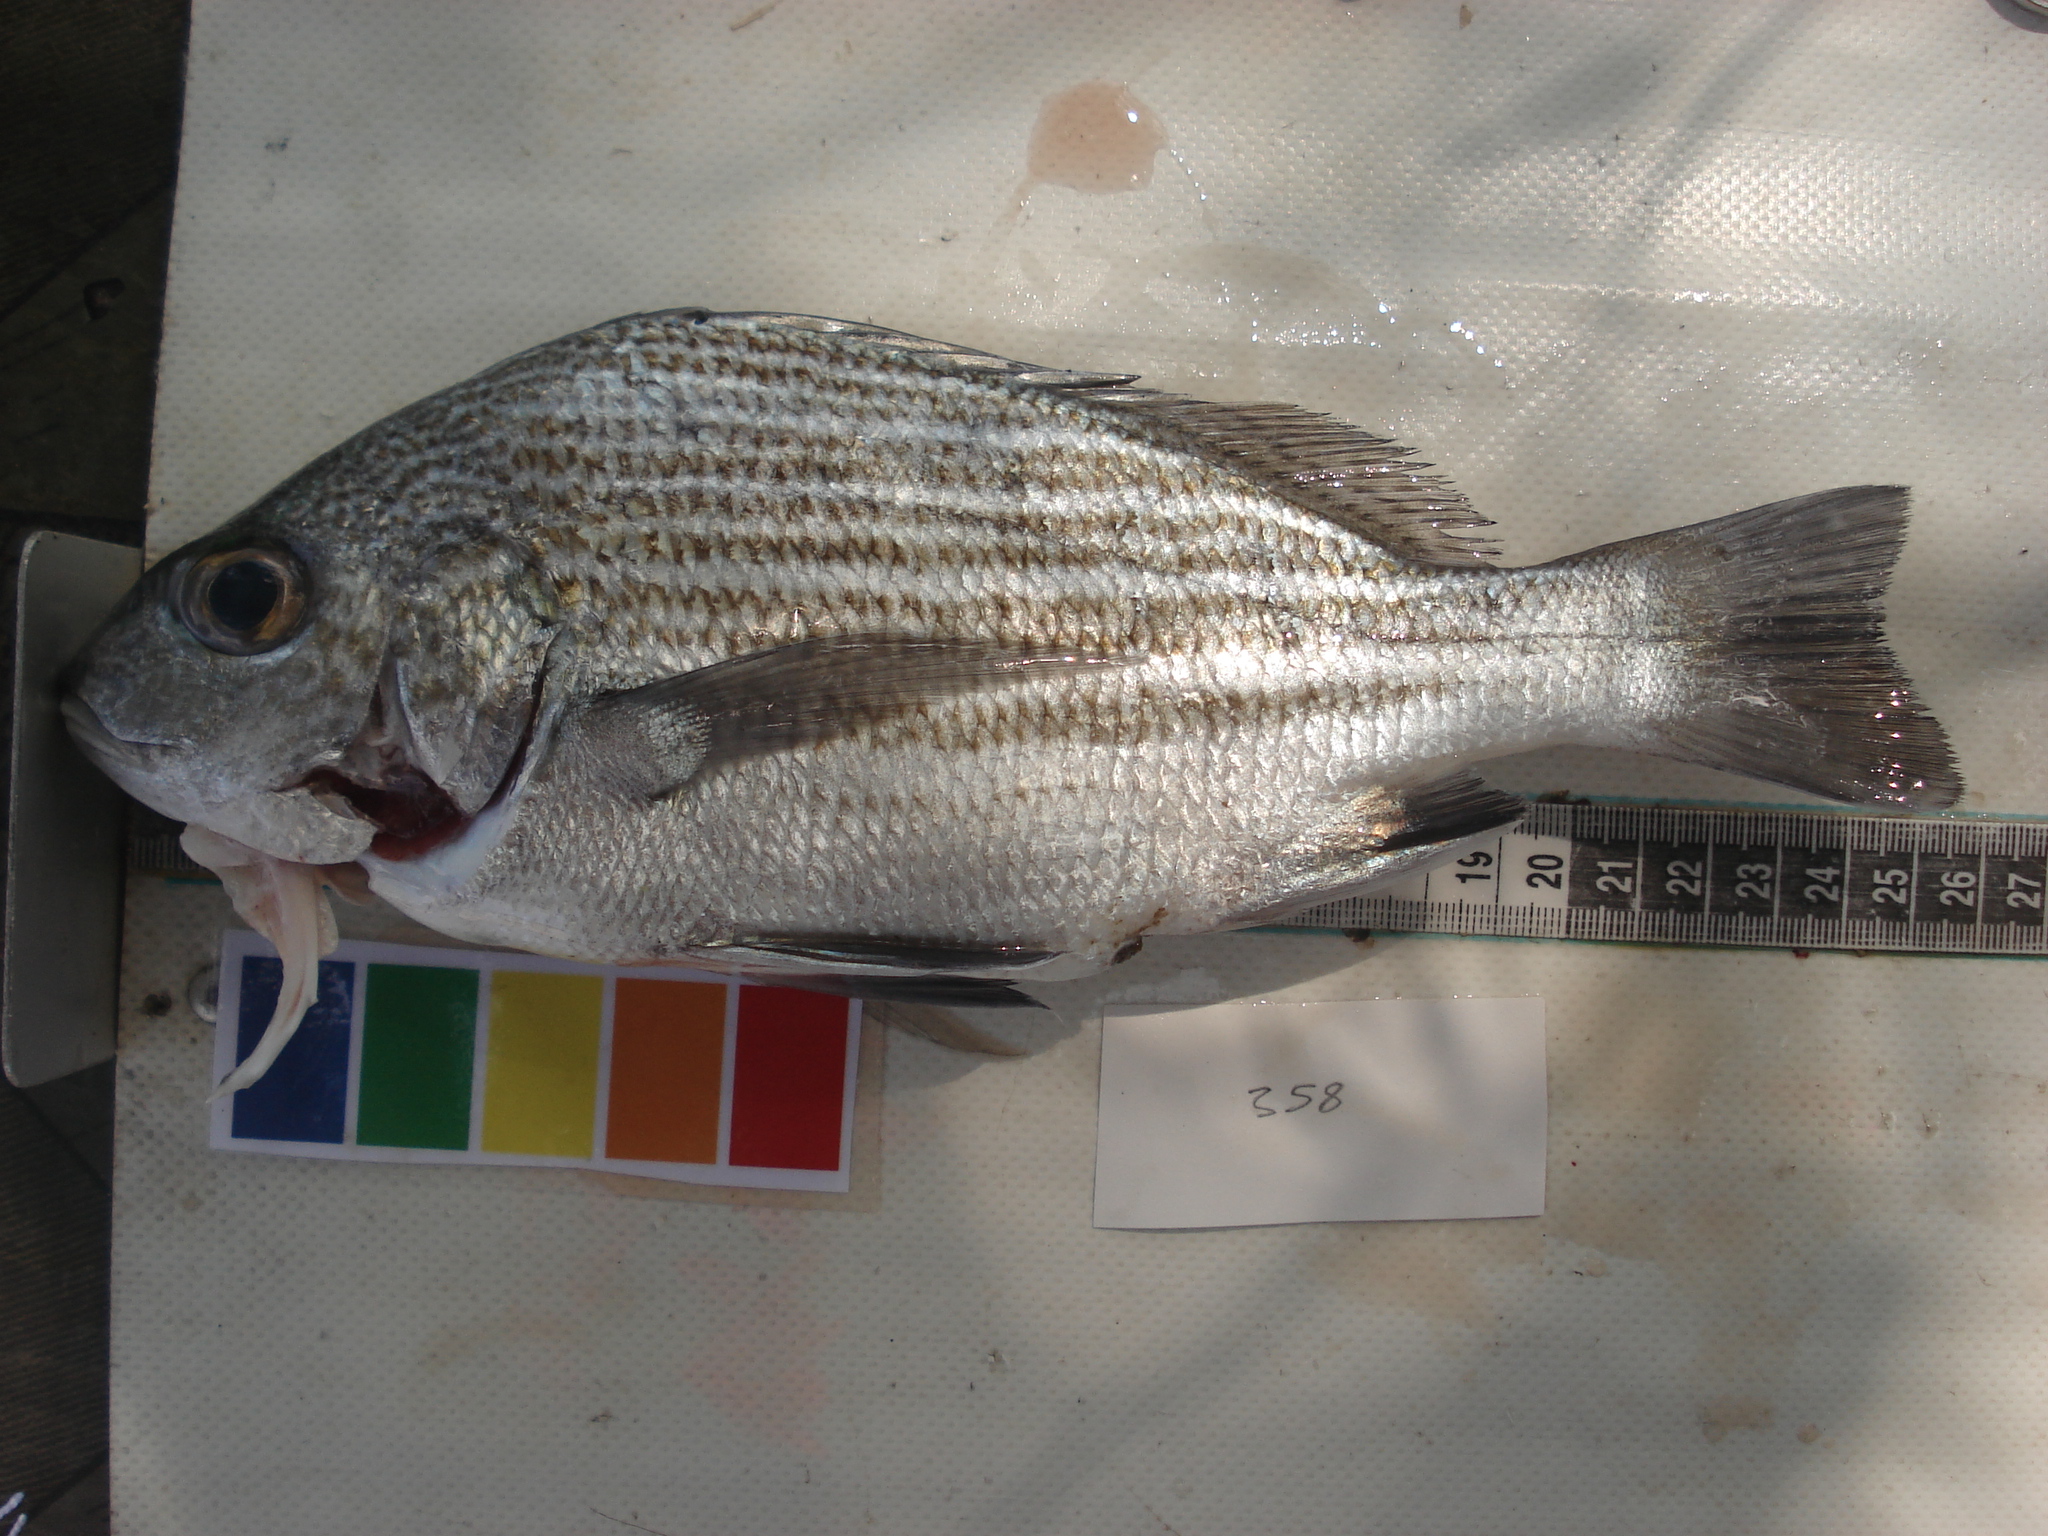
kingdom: Animalia
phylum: Chordata
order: Perciformes
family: Haemulidae
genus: Pomadasys
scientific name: Pomadasys furcatus
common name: Banded grunter
